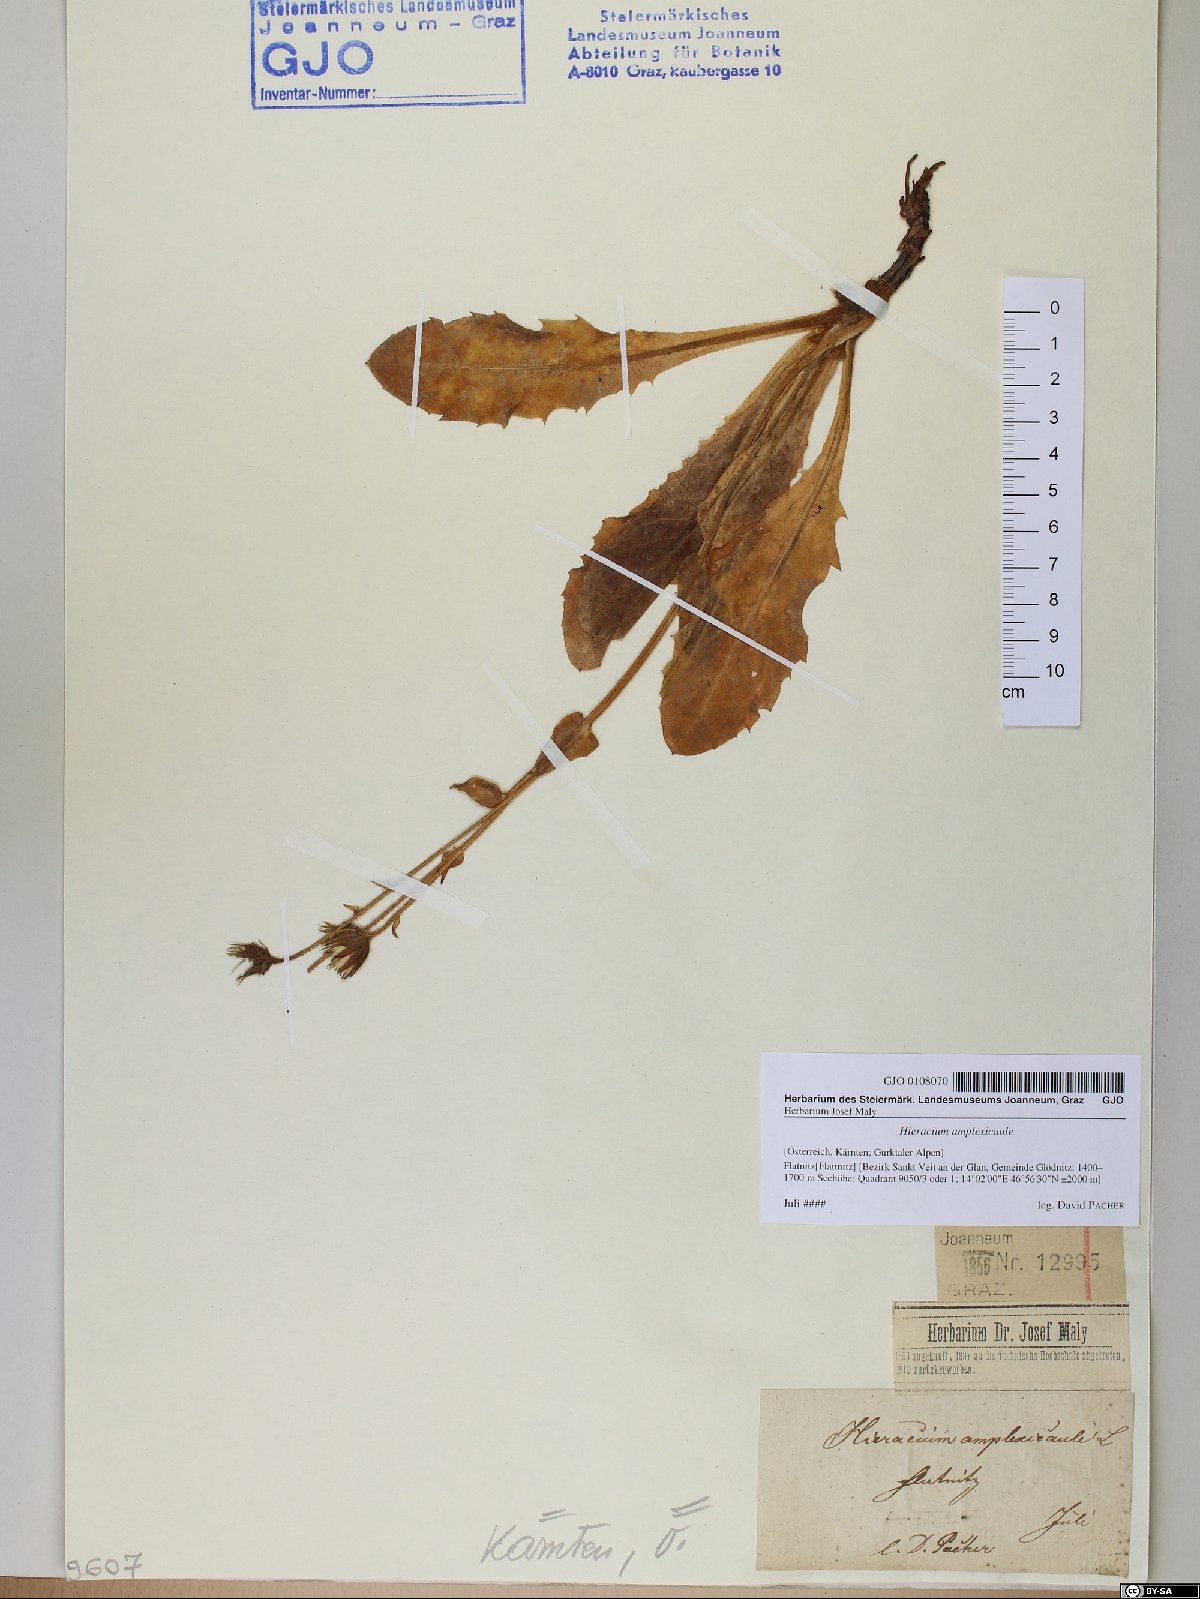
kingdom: Plantae
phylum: Tracheophyta
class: Magnoliopsida
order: Asterales
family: Asteraceae
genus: Hieracium
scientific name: Hieracium amplexicaule
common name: Sticky hawkweed
